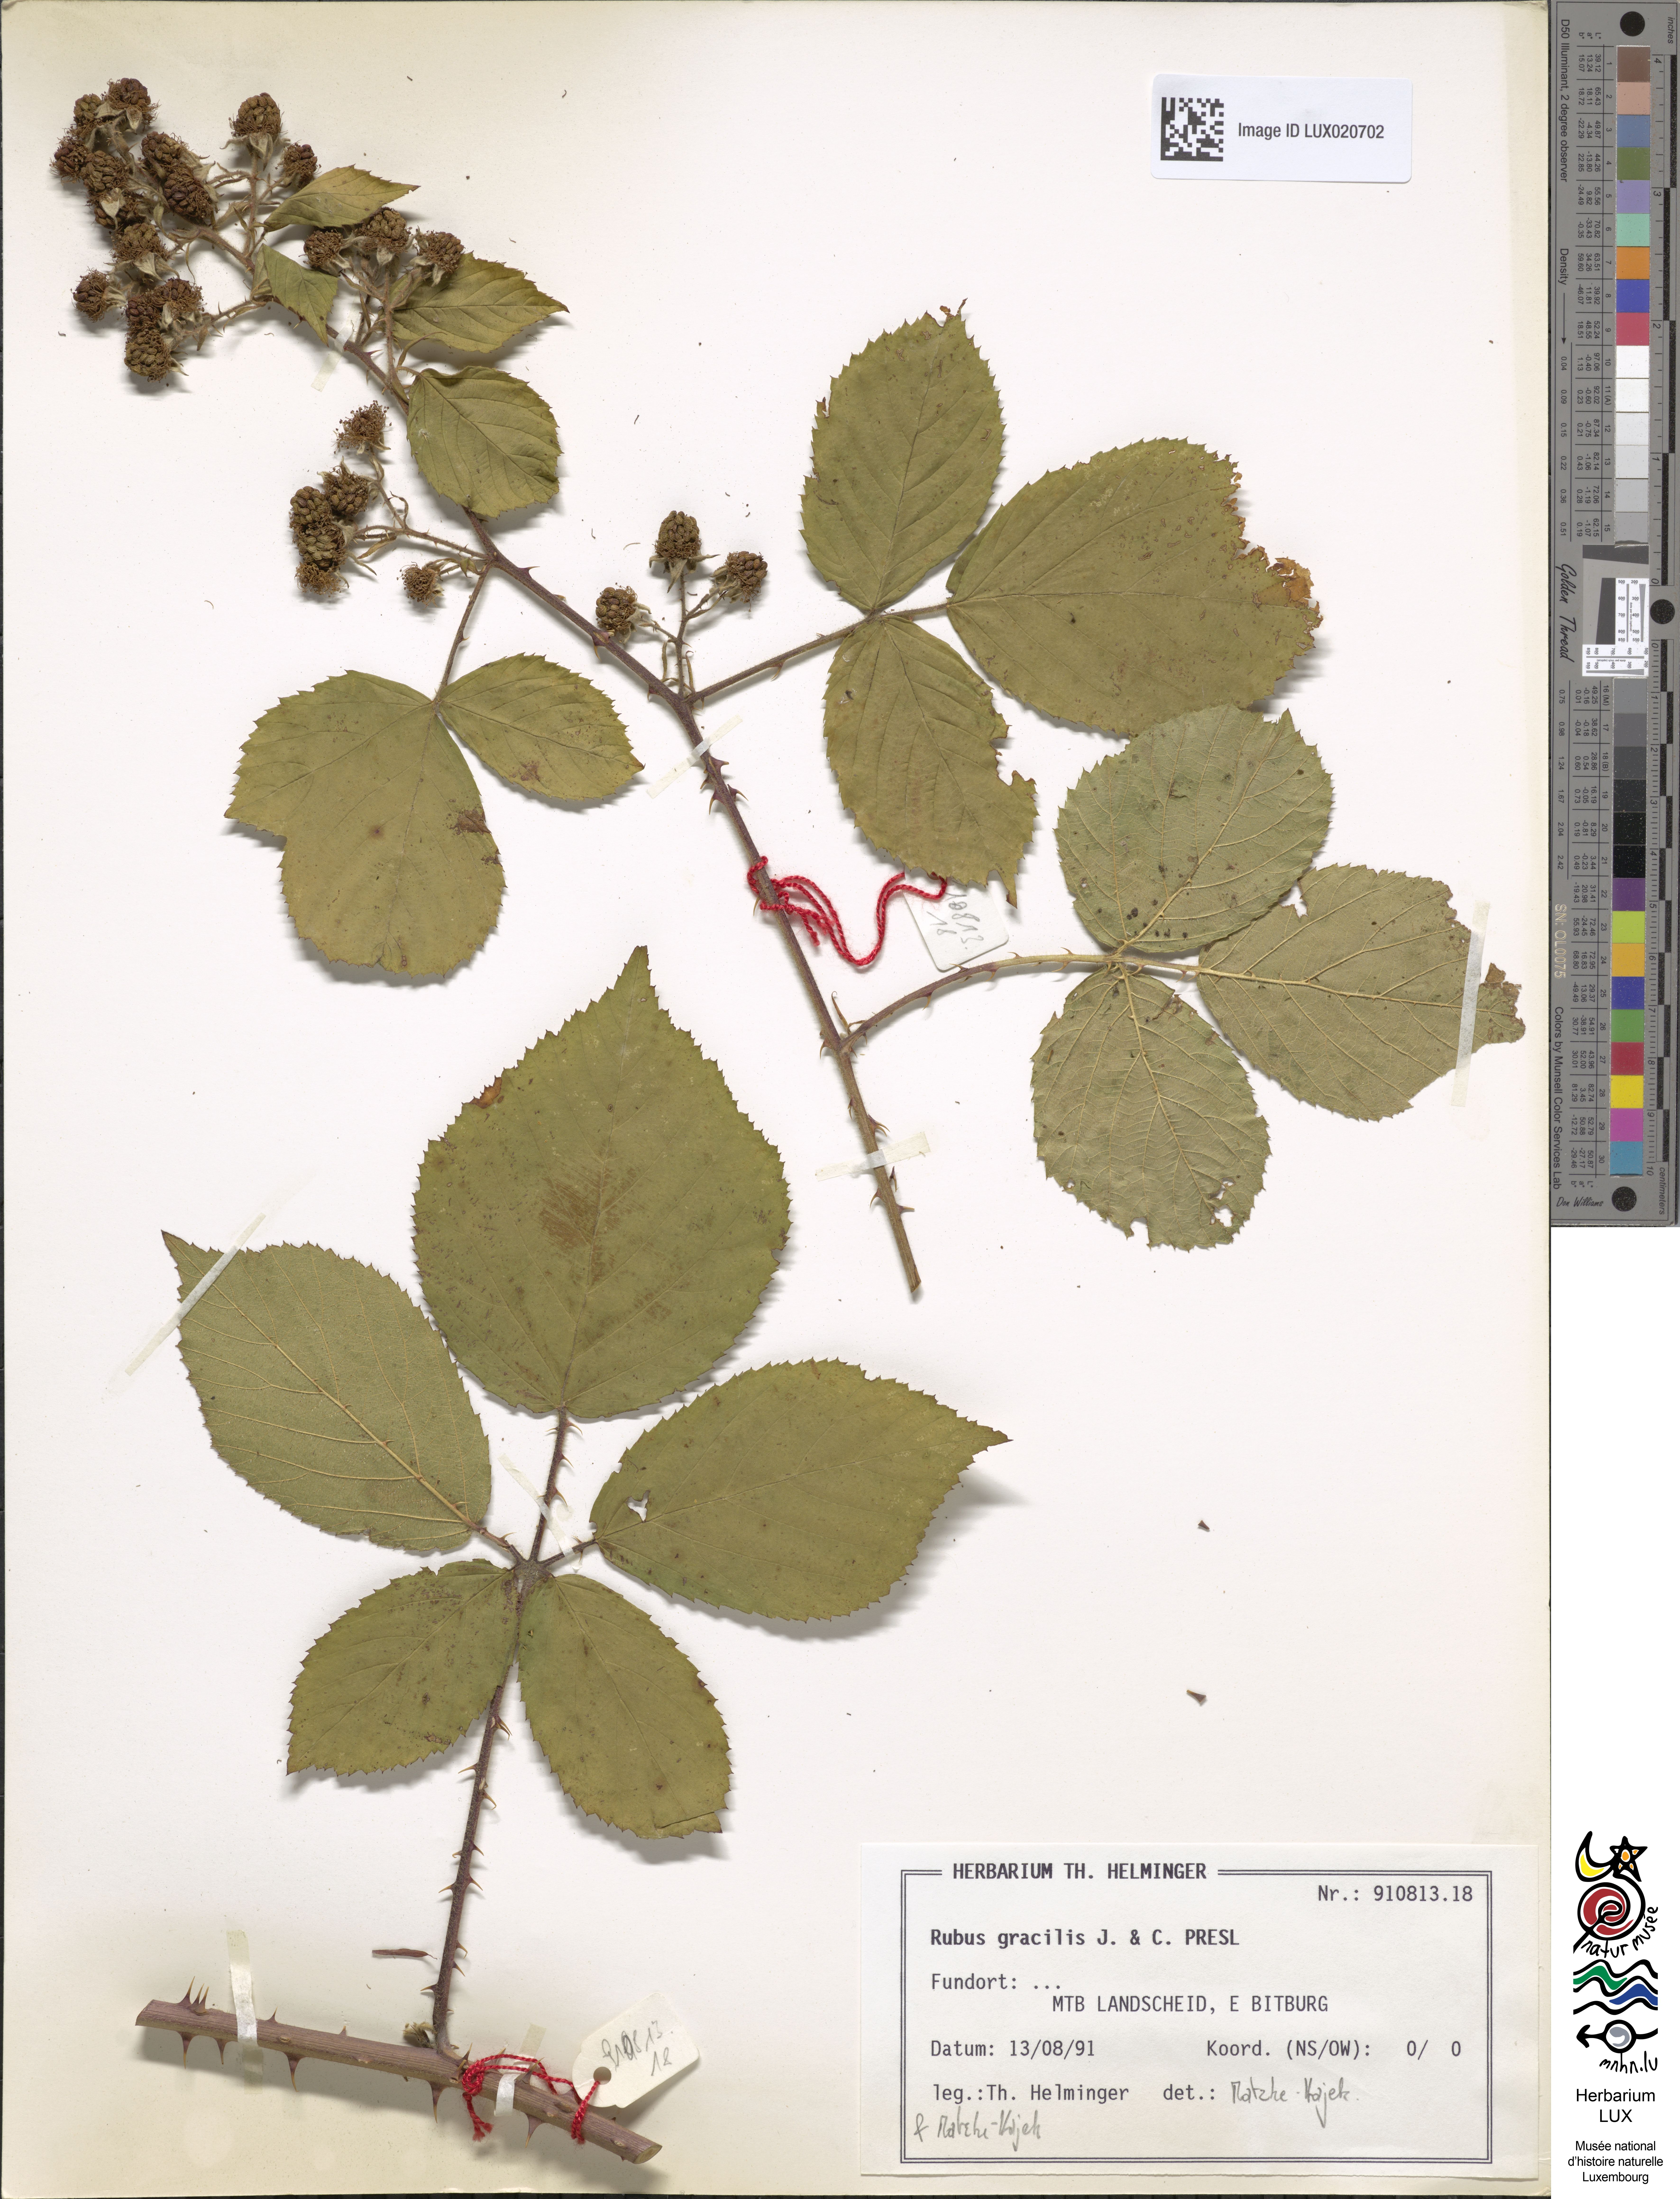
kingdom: Plantae
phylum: Tracheophyta
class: Magnoliopsida
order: Rosales
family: Rosaceae
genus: Rubus
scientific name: Rubus gracilis
